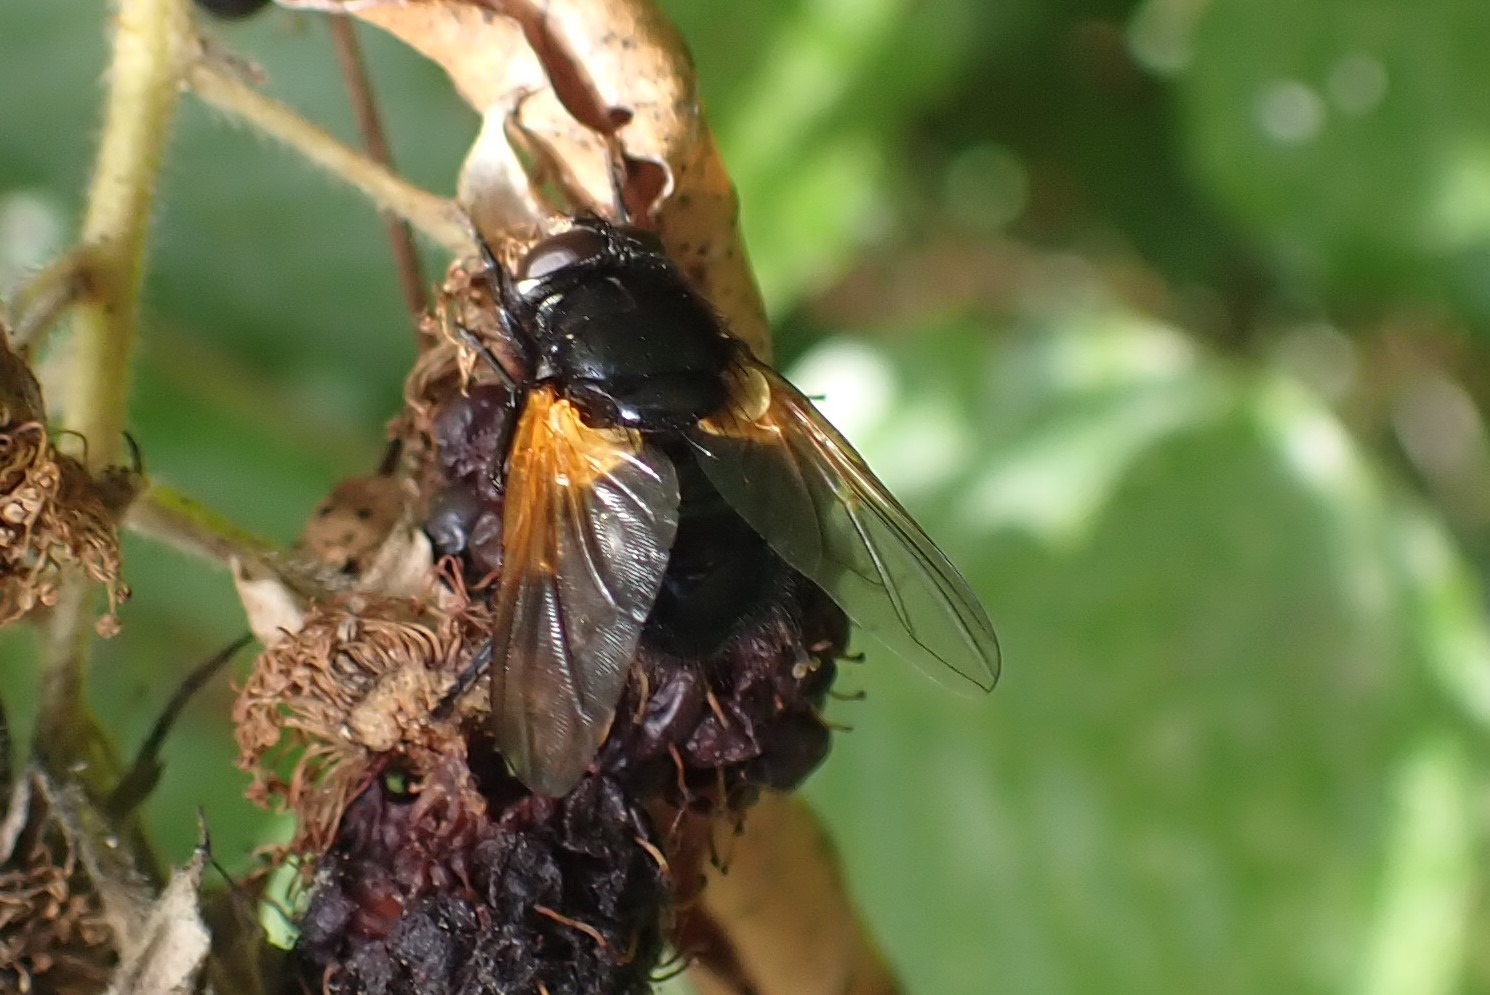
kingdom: Animalia
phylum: Arthropoda
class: Insecta
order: Diptera
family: Muscidae
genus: Mesembrina
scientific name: Mesembrina meridiana
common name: Gulvinget flue
